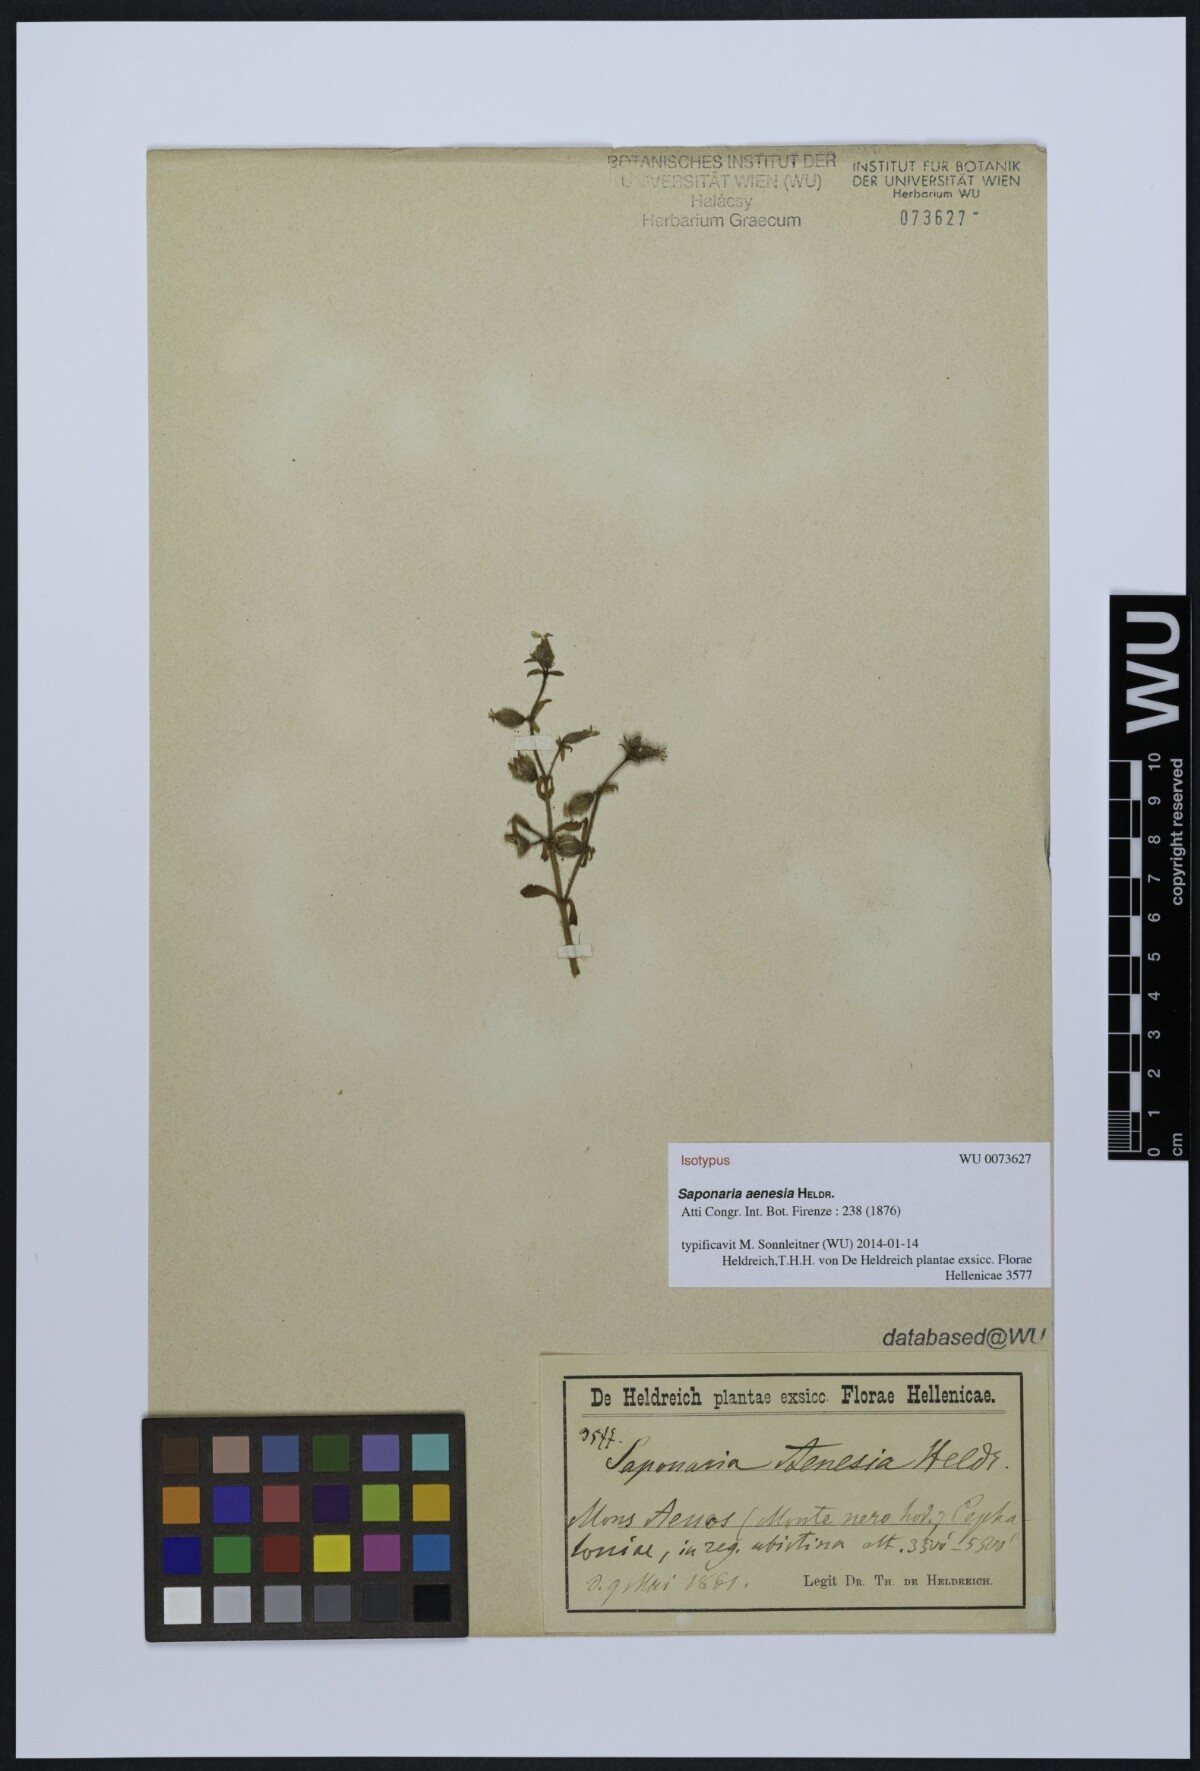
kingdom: Plantae
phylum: Tracheophyta
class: Magnoliopsida
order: Caryophyllales
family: Caryophyllaceae
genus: Saponaria
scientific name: Saponaria aenesia
